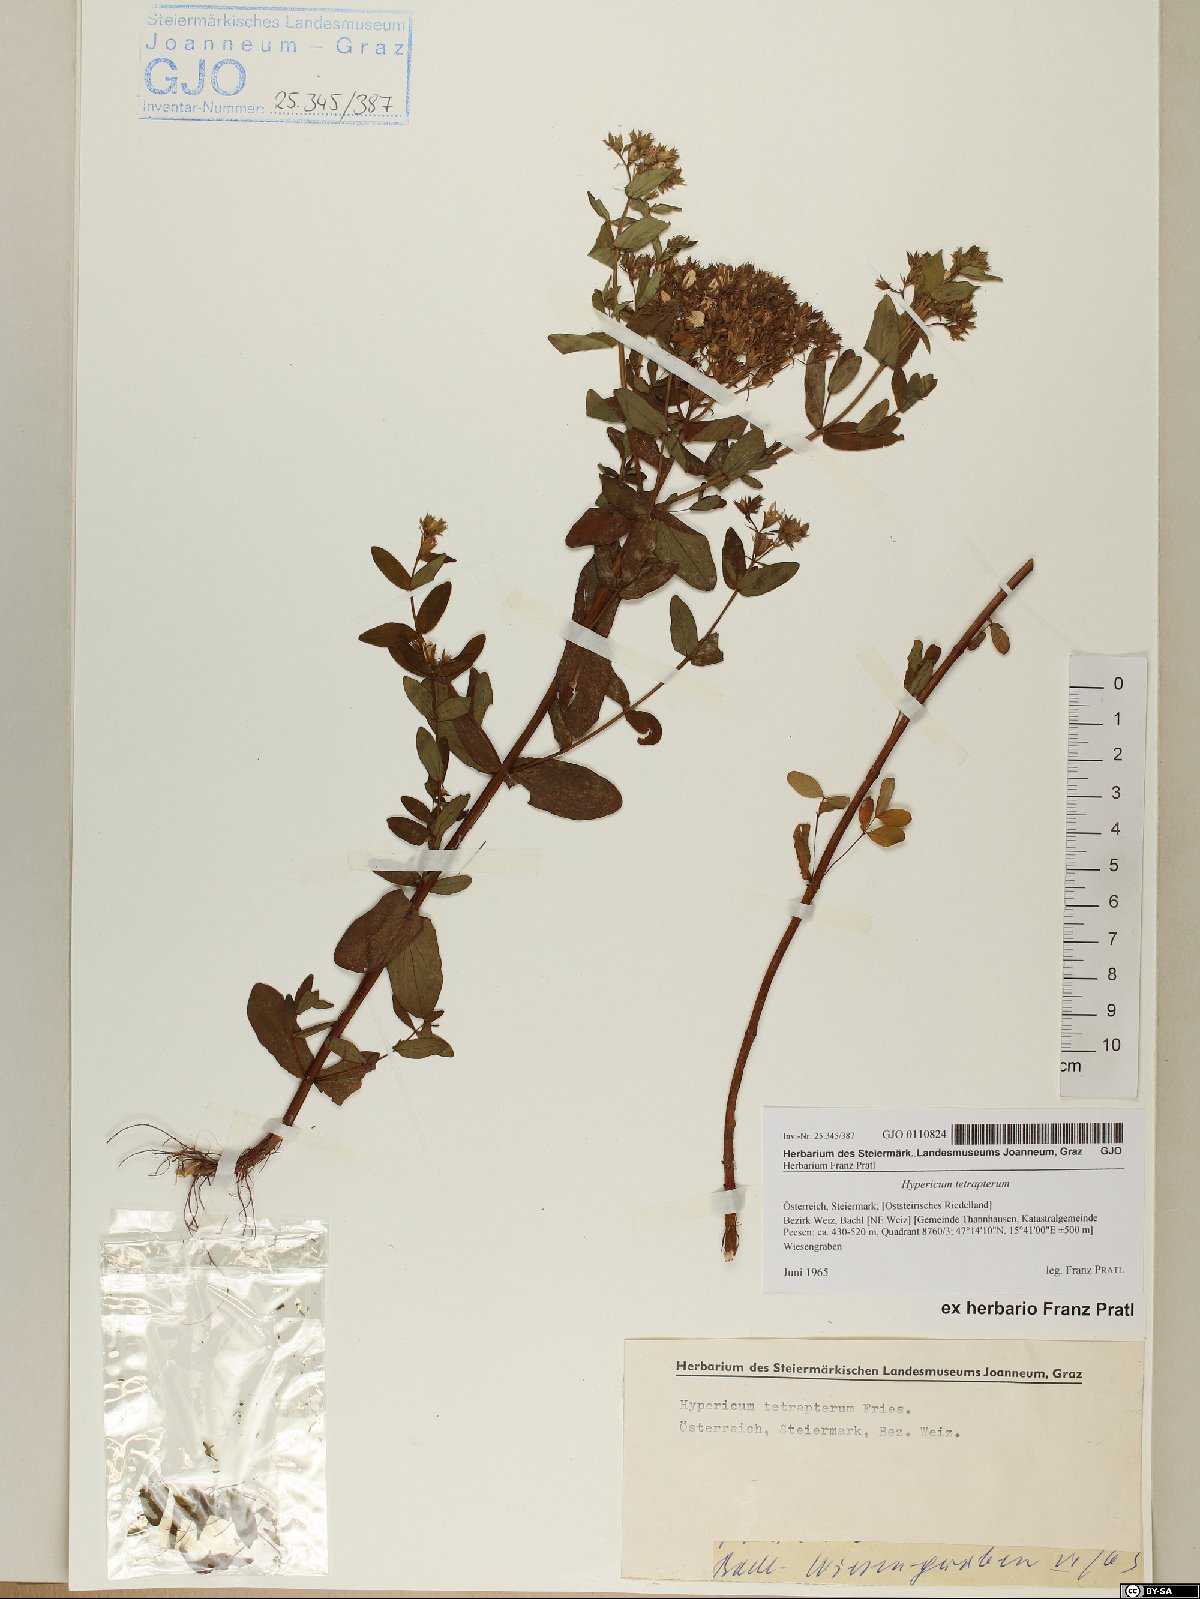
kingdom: Plantae
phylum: Tracheophyta
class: Magnoliopsida
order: Malpighiales
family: Hypericaceae
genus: Hypericum
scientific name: Hypericum tetrapterum
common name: Square-stalked st. john's-wort
